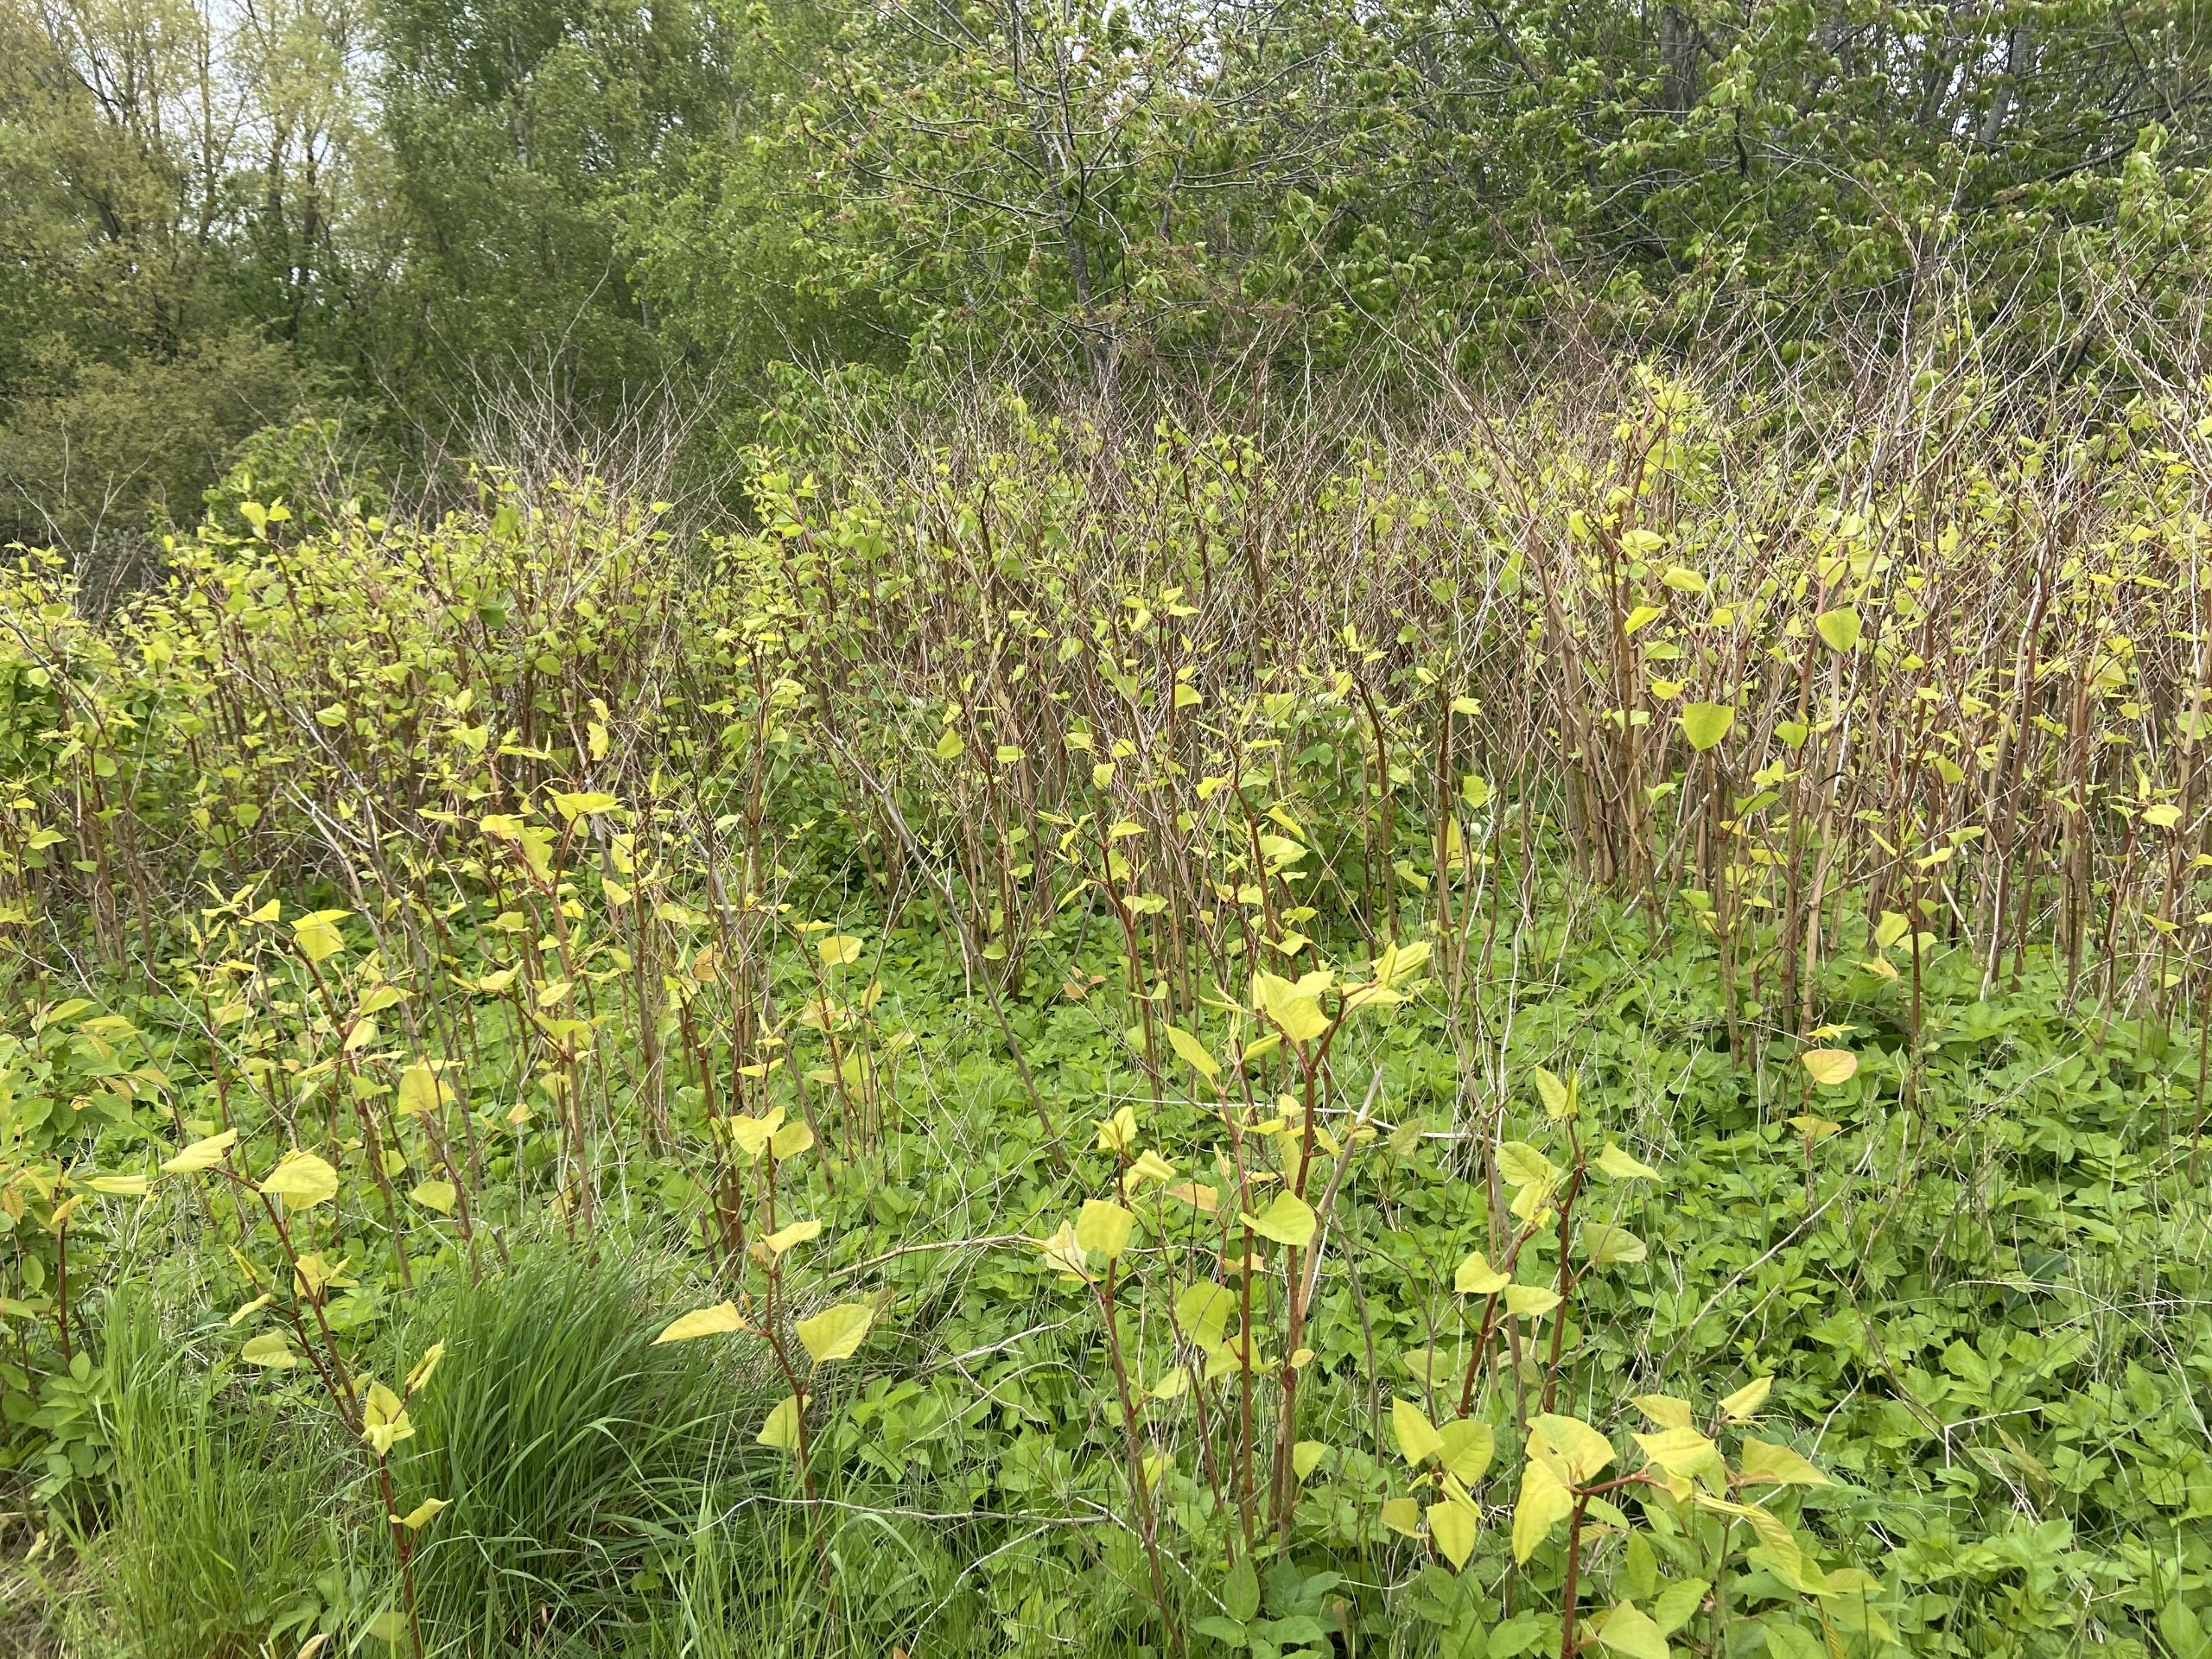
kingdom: Plantae
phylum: Tracheophyta
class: Magnoliopsida
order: Caryophyllales
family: Polygonaceae
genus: Reynoutria
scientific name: Reynoutria japonica
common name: Japan-pileurt
